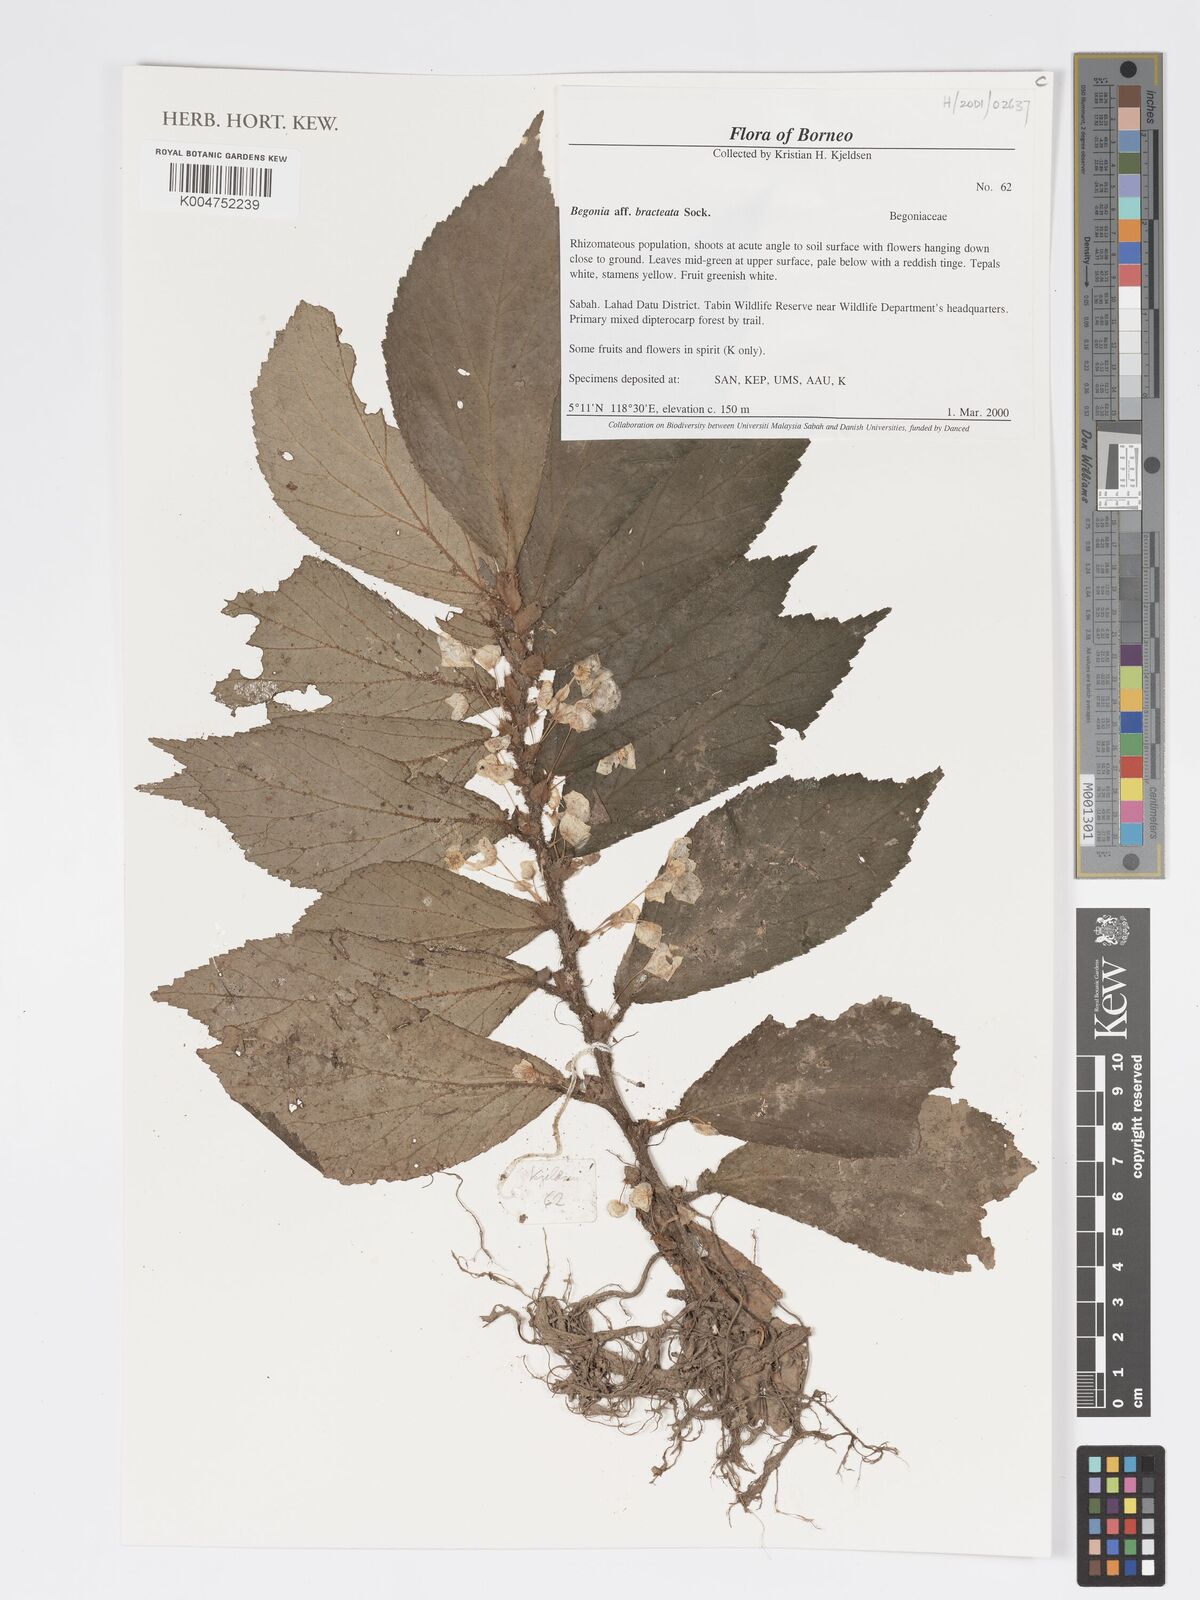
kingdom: Plantae
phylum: Tracheophyta
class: Magnoliopsida
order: Cucurbitales
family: Begoniaceae
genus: Begonia
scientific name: Begonia cauliflora
